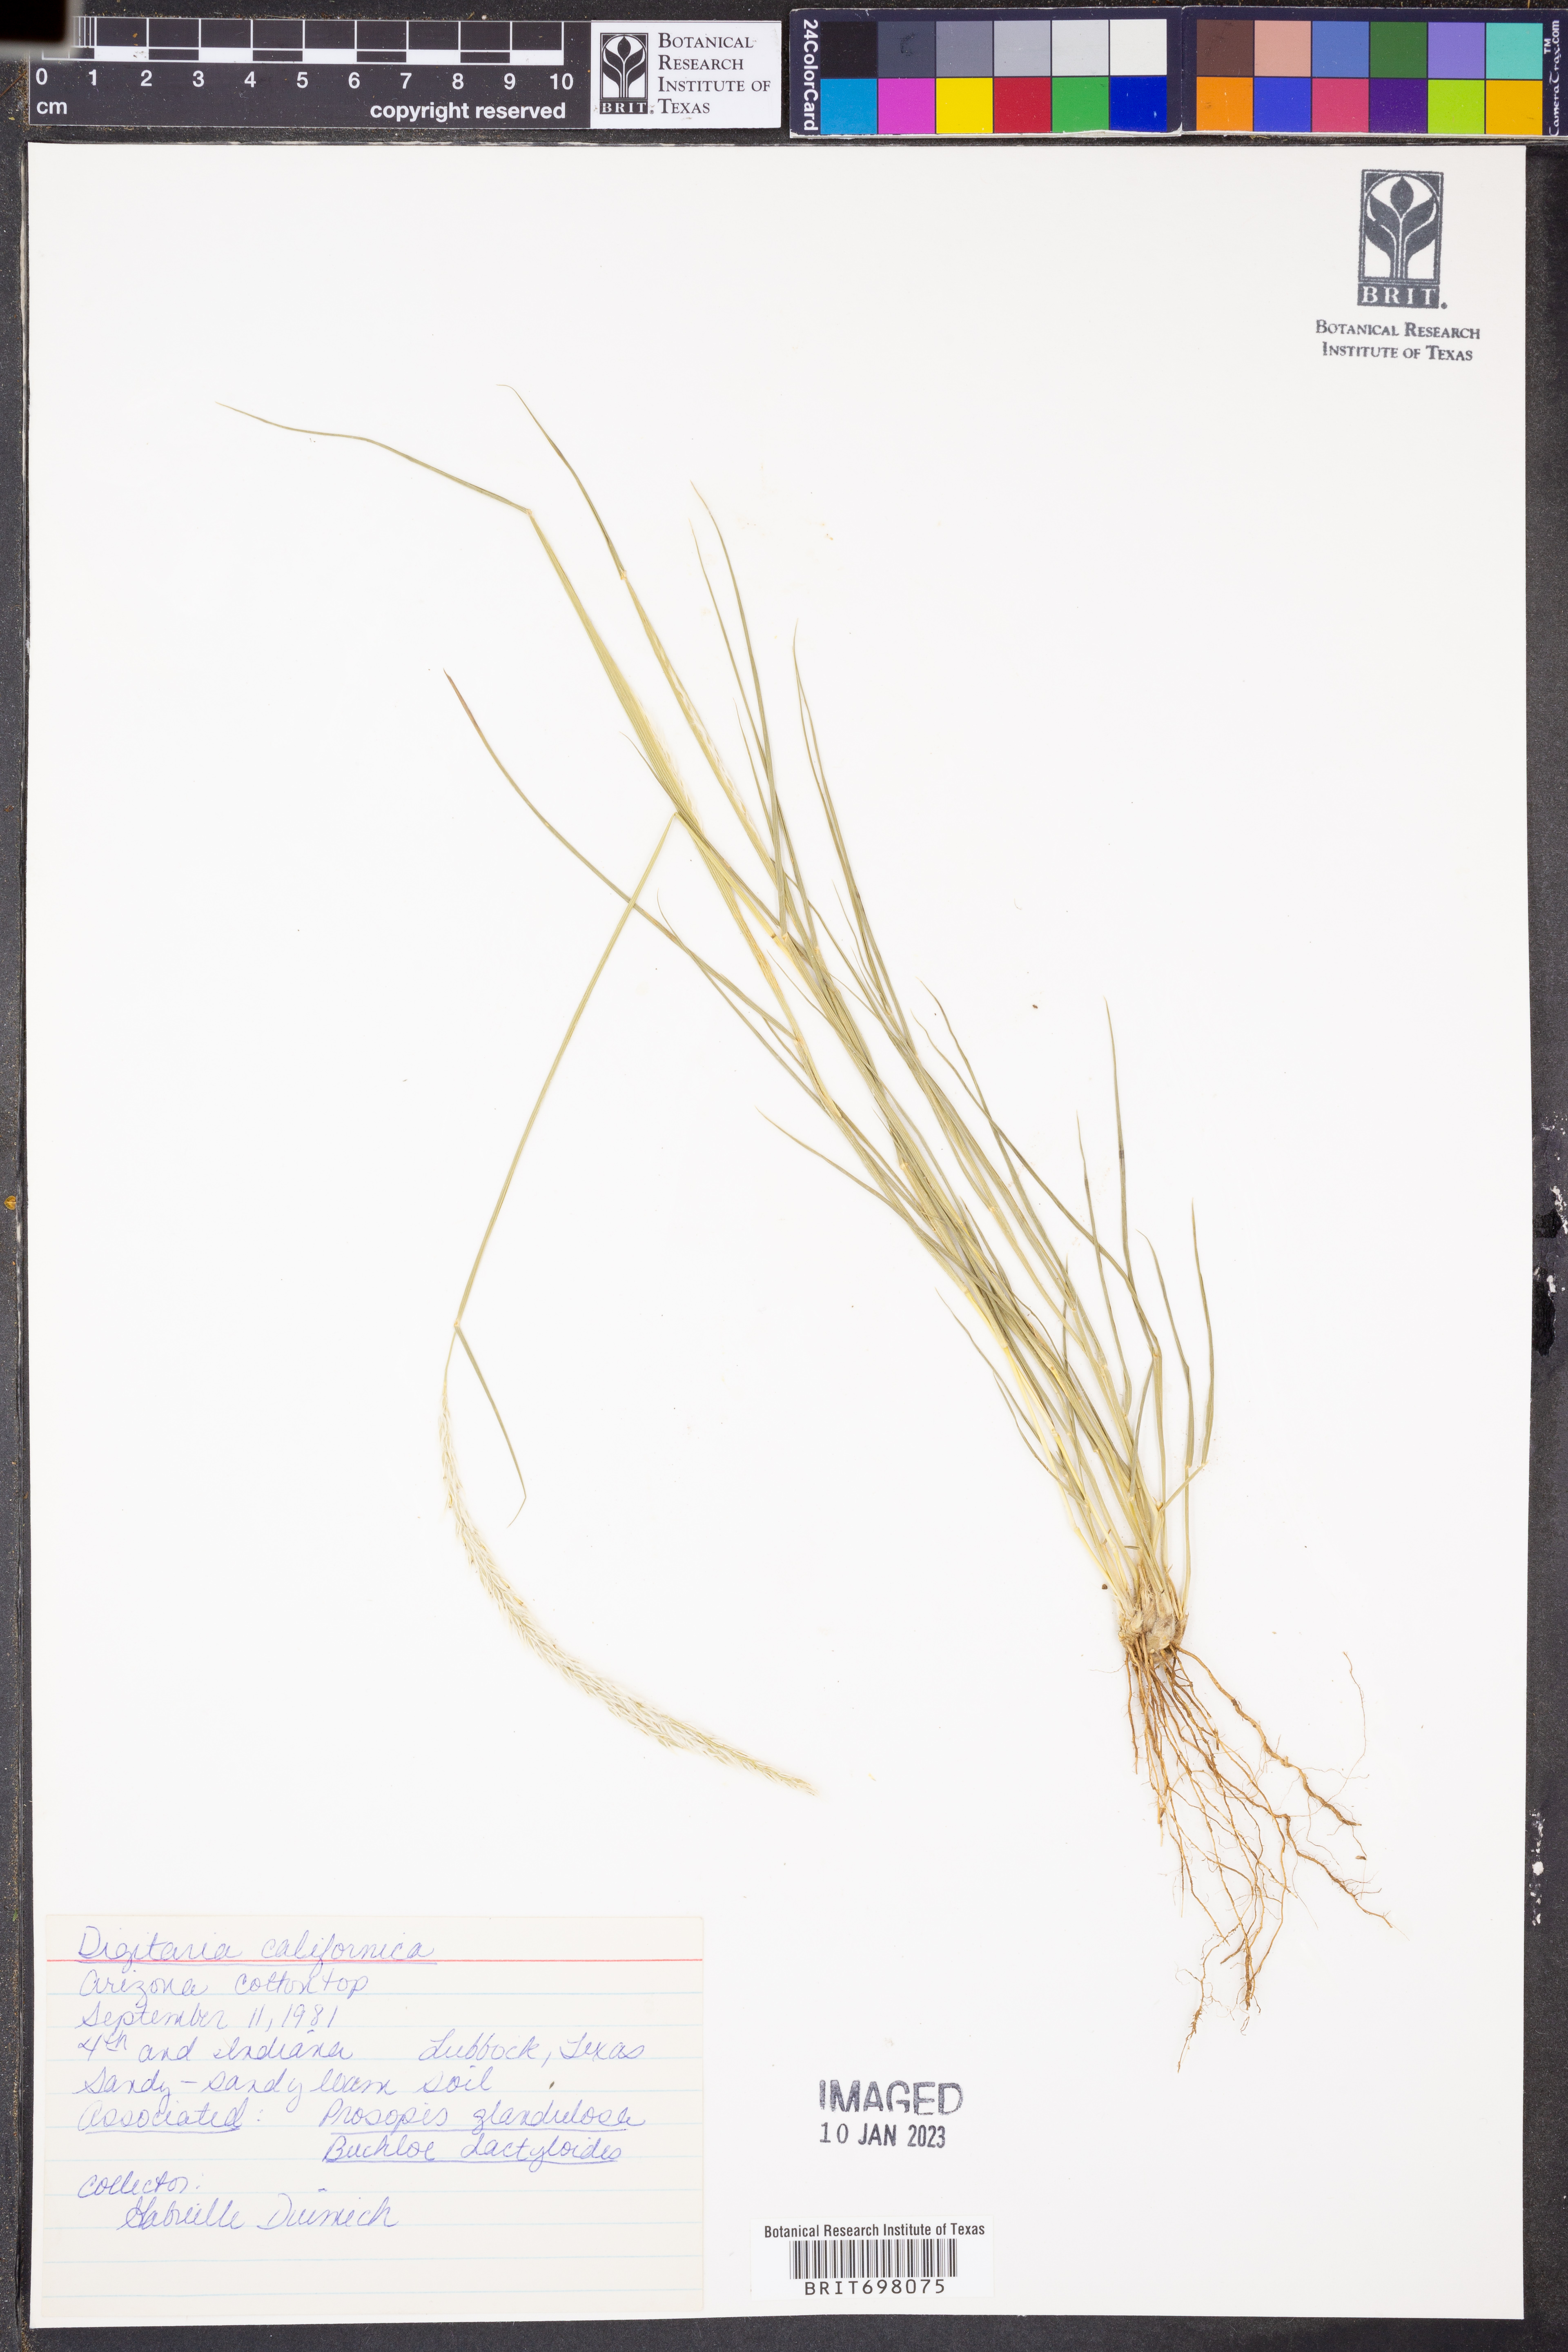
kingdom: Plantae
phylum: Tracheophyta
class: Liliopsida
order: Poales
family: Poaceae
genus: Digitaria
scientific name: Digitaria californica
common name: Arizona cottontop
